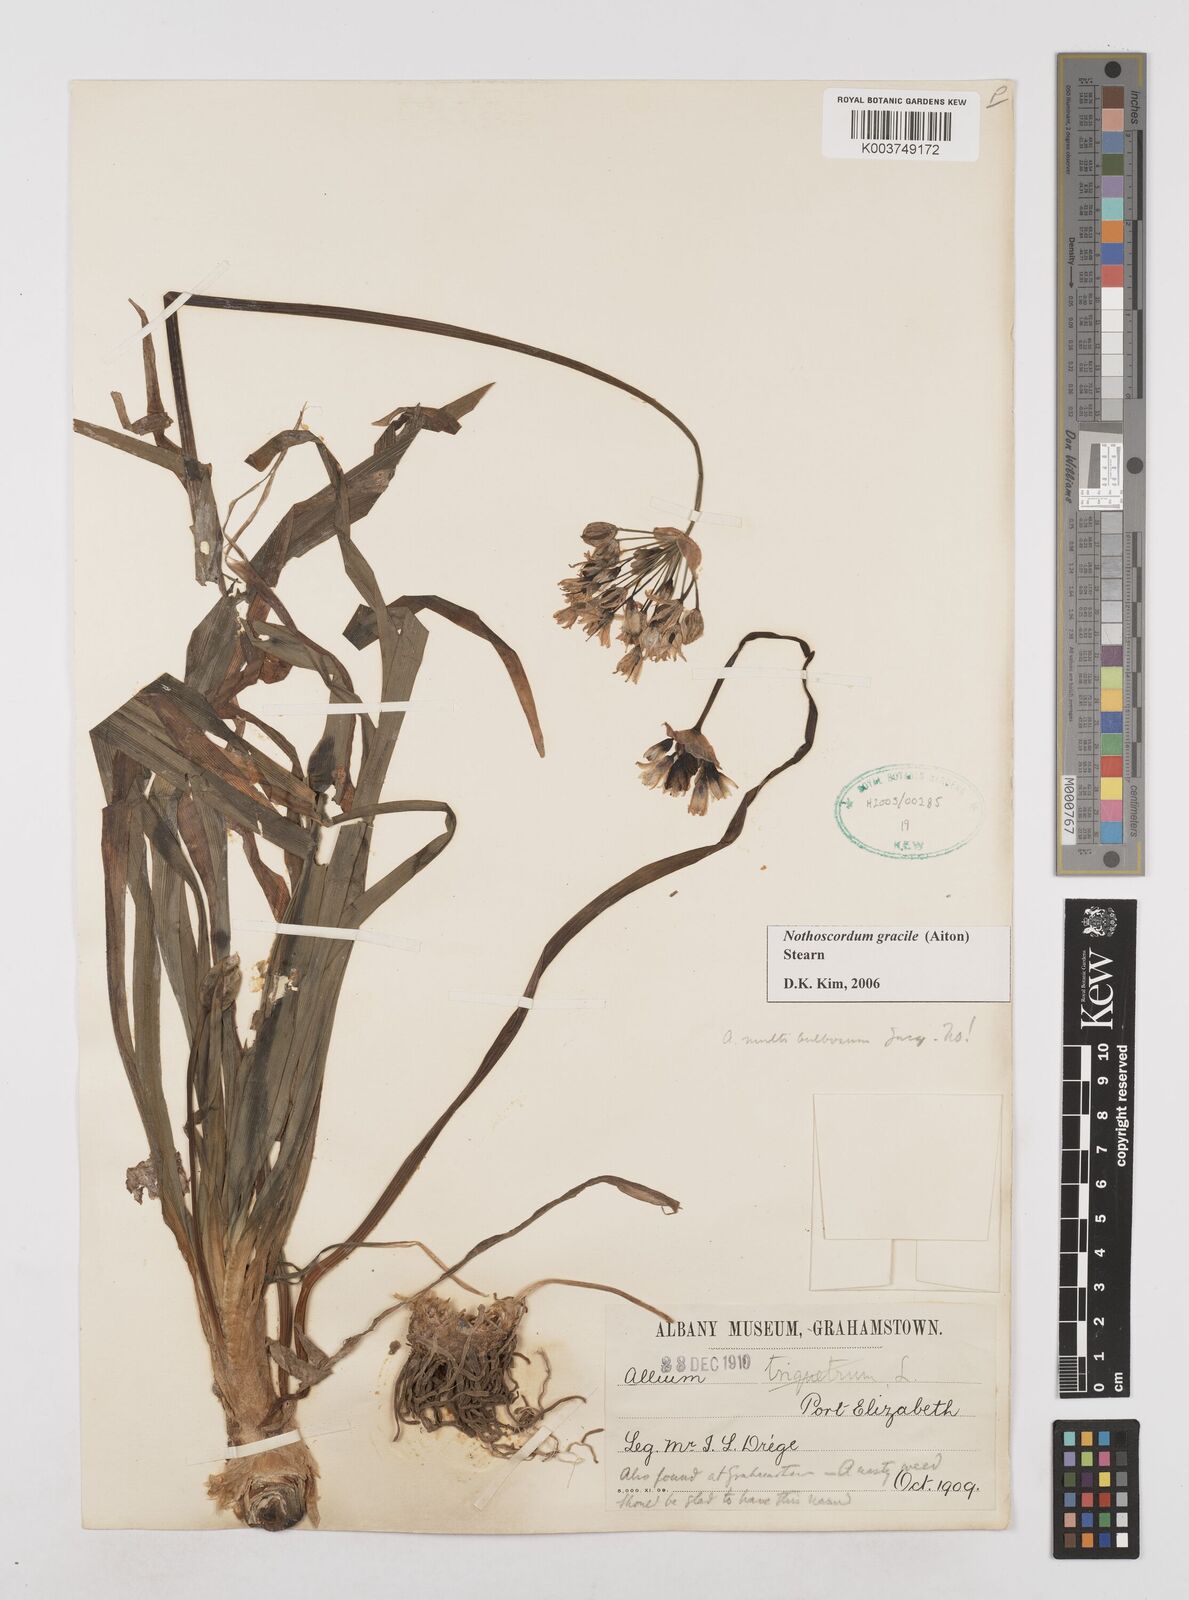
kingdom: Plantae
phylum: Tracheophyta
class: Liliopsida
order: Asparagales
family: Amaryllidaceae
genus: Nothoscordum
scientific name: Nothoscordum gracile
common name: Slender false garlic
